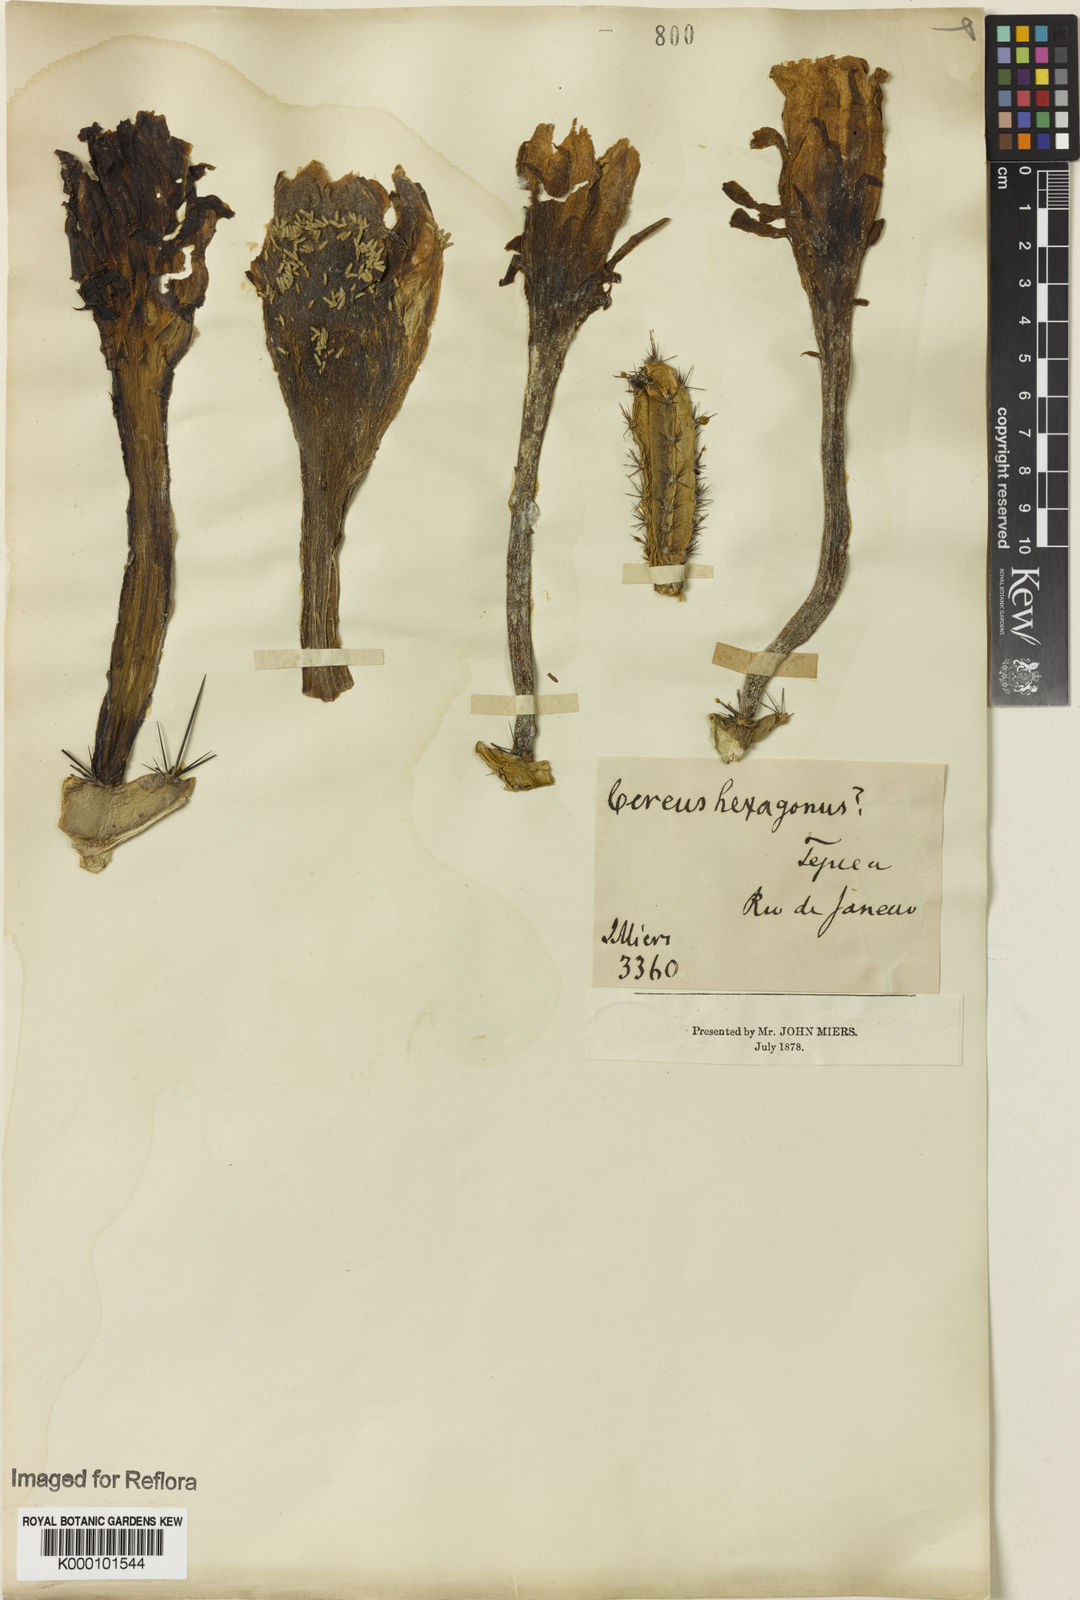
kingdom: Plantae
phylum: Tracheophyta
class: Magnoliopsida
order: Caryophyllales
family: Cactaceae
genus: Cereus
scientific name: Cereus hildmannianus
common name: Hedge cactus
